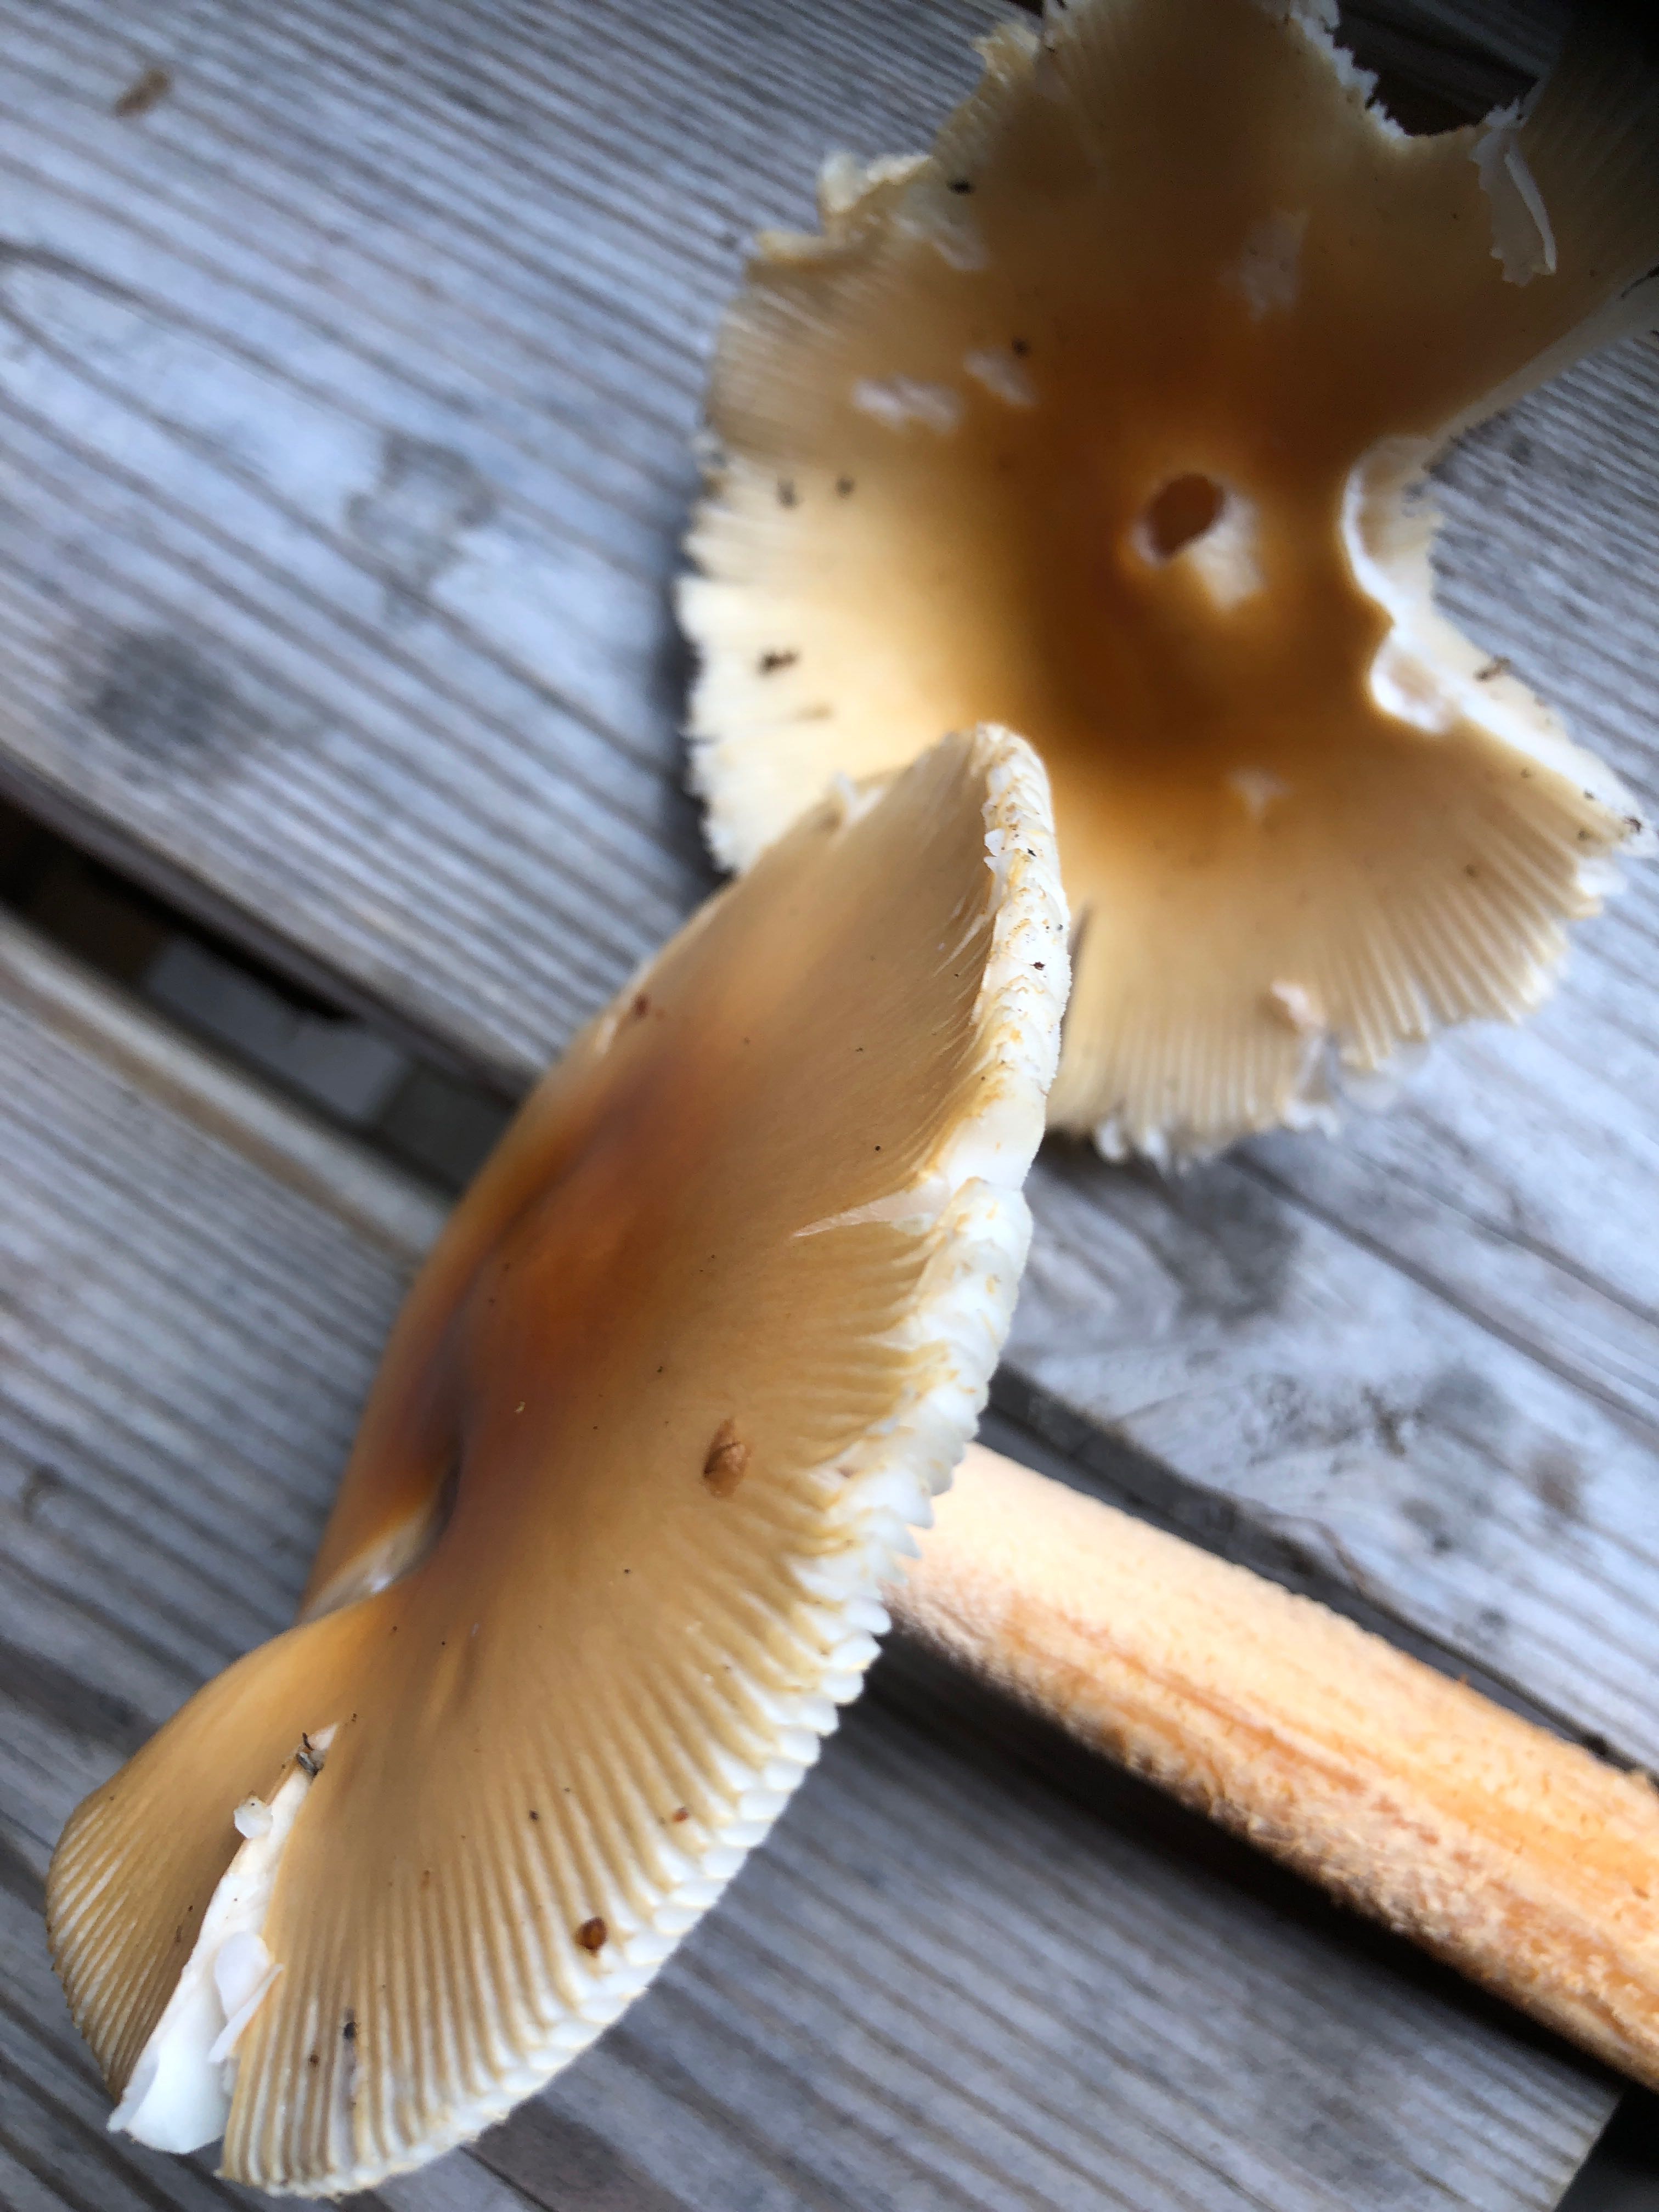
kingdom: Fungi
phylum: Basidiomycota
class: Agaricomycetes
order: Agaricales
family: Amanitaceae
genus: Amanita
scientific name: Amanita crocea
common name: gylden kam-fluesvamp
